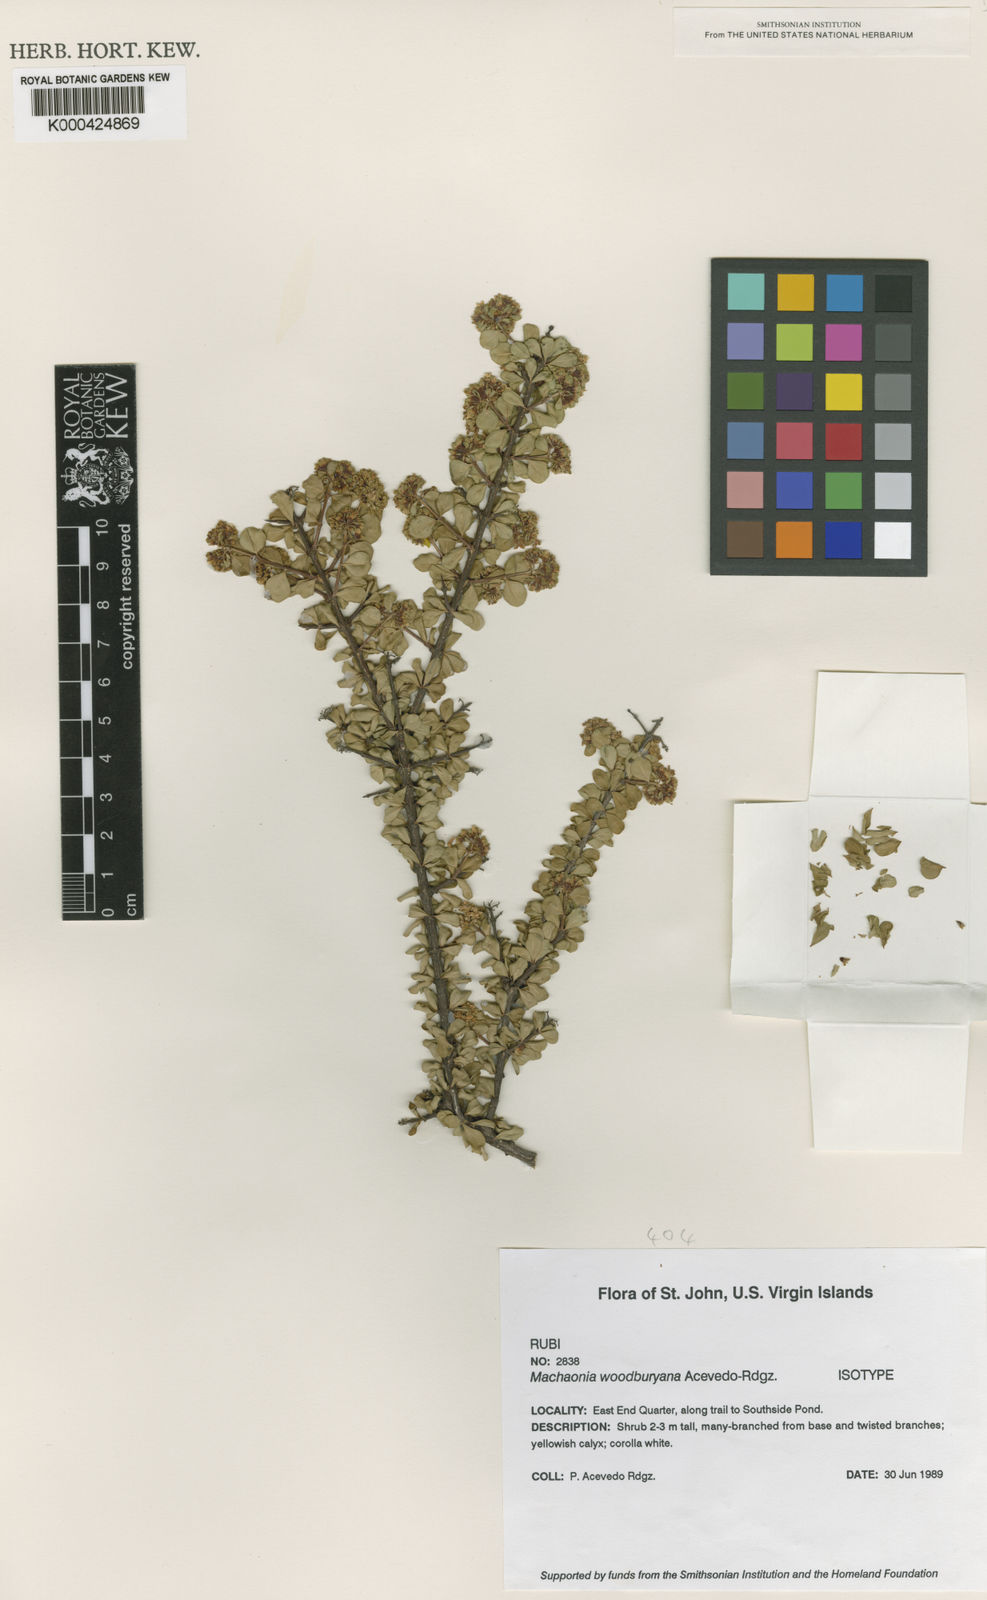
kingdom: Plantae
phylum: Tracheophyta
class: Magnoliopsida
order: Gentianales
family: Rubiaceae
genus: Machaonia
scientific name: Machaonia woodburyana
